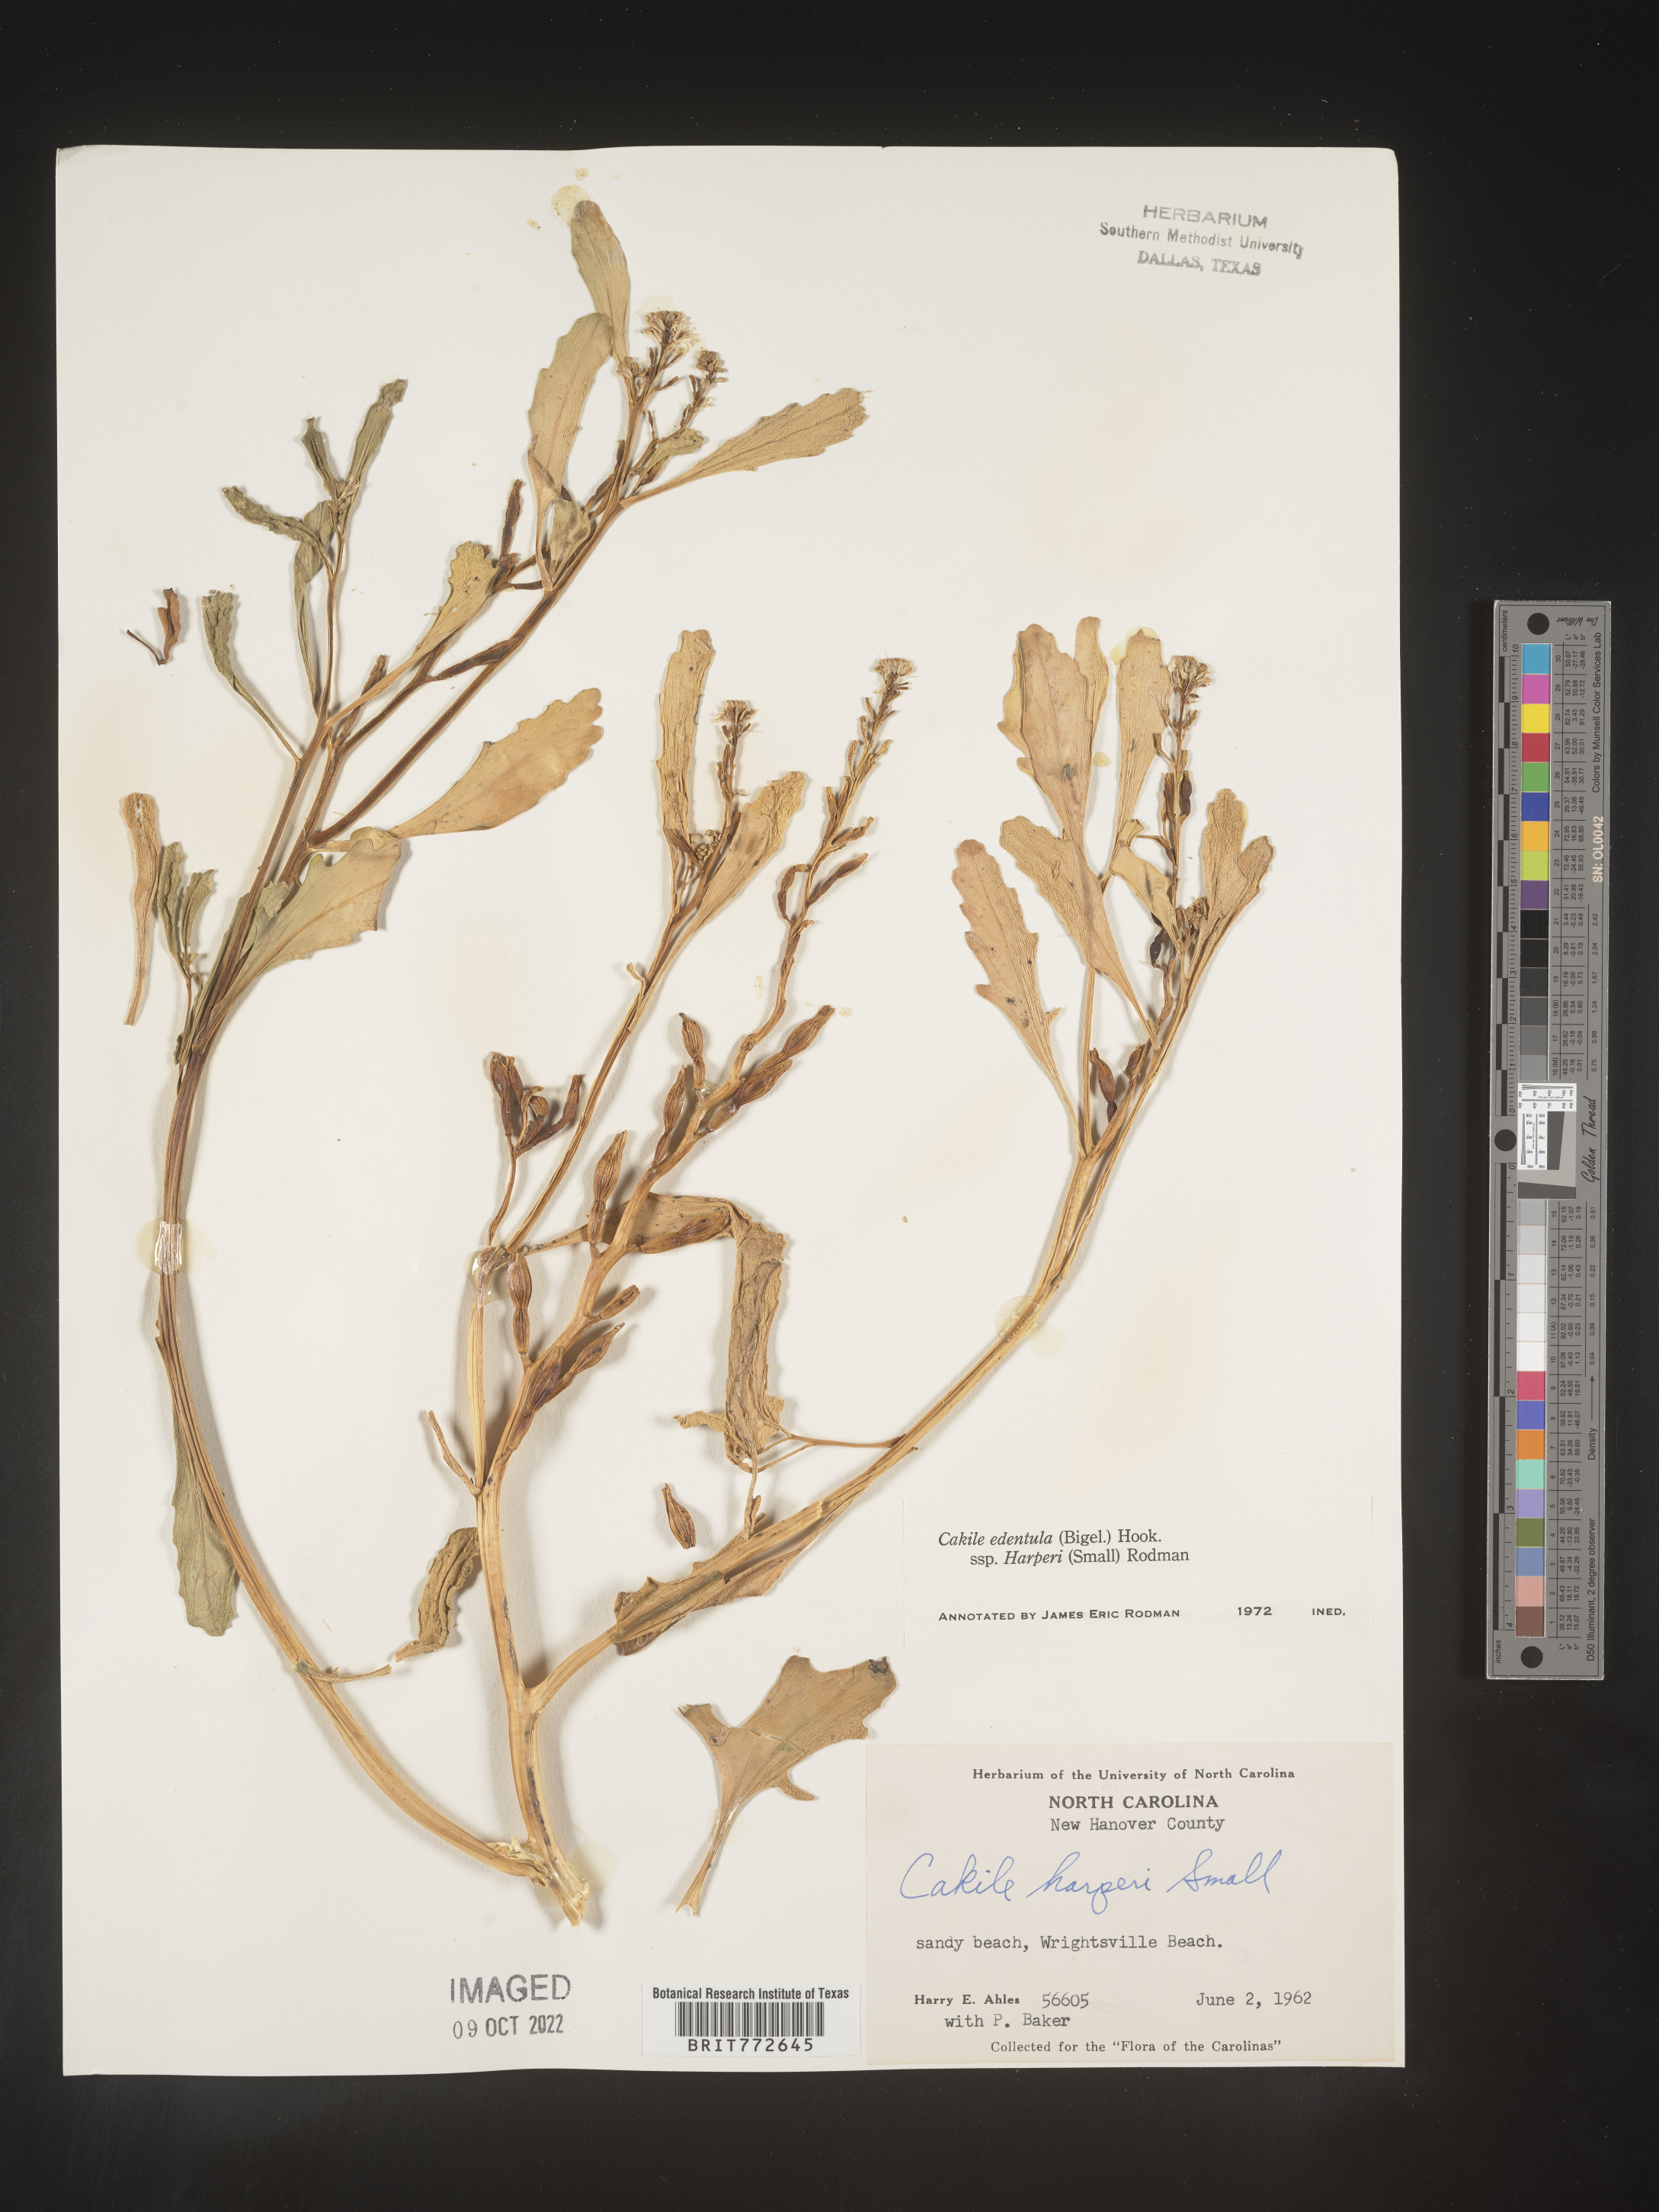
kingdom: Plantae
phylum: Tracheophyta
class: Magnoliopsida
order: Brassicales
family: Brassicaceae
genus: Cakile
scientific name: Cakile edentula
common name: American sea rocket
